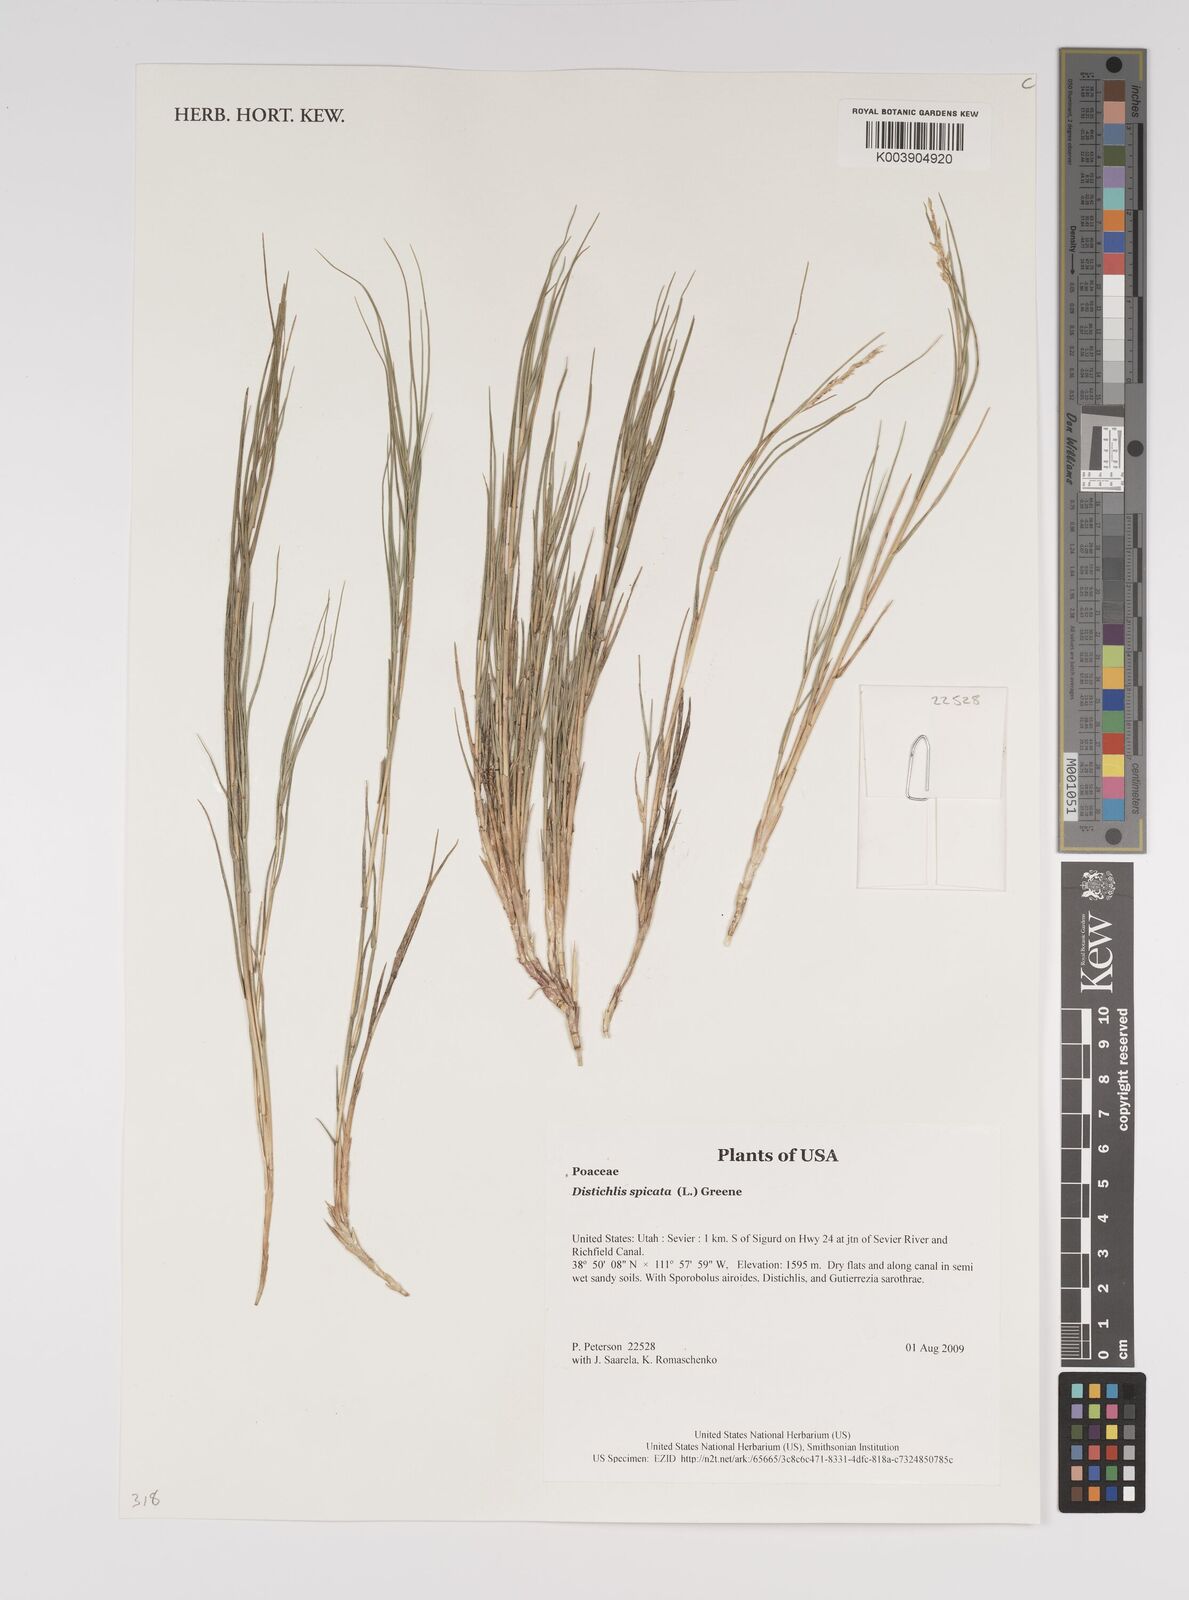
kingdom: Plantae
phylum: Tracheophyta
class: Liliopsida
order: Poales
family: Poaceae
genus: Distichlis
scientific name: Distichlis spicata
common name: Saltgrass
